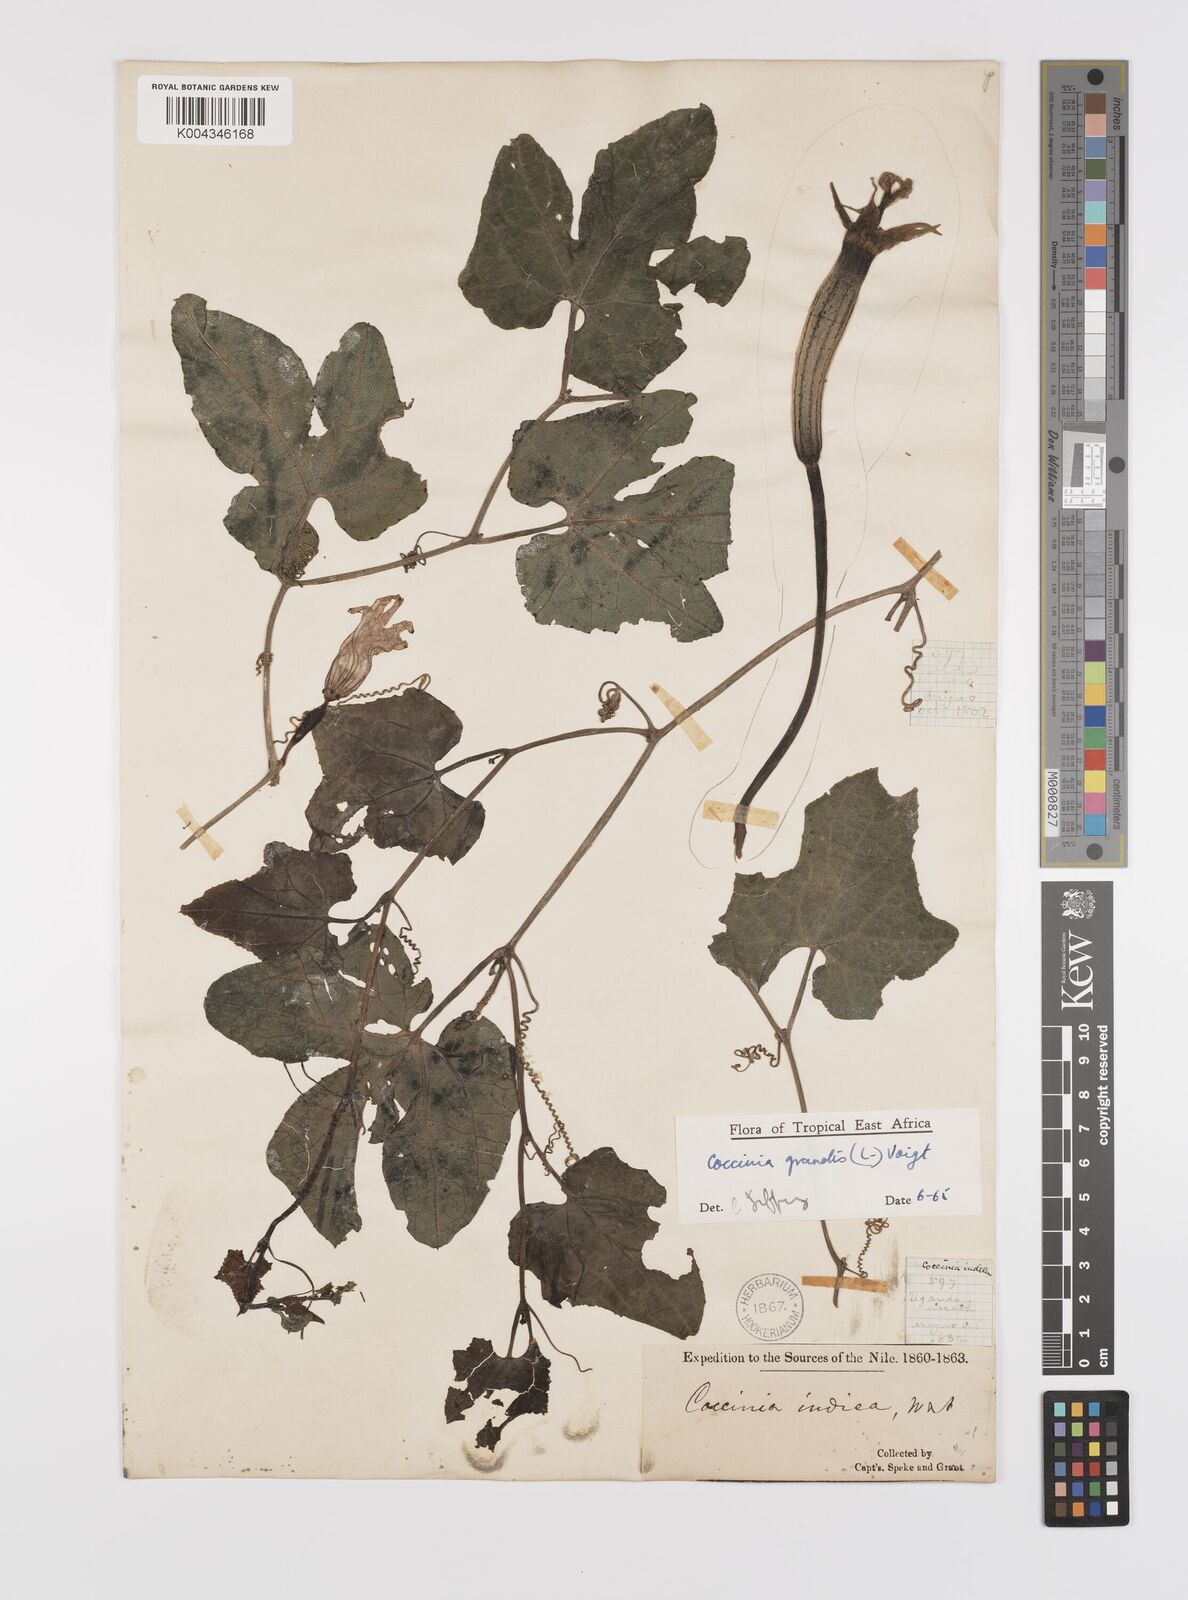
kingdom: Plantae
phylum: Tracheophyta
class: Magnoliopsida
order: Cucurbitales
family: Cucurbitaceae
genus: Coccinia
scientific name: Coccinia grandis
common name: Ivy gourd
